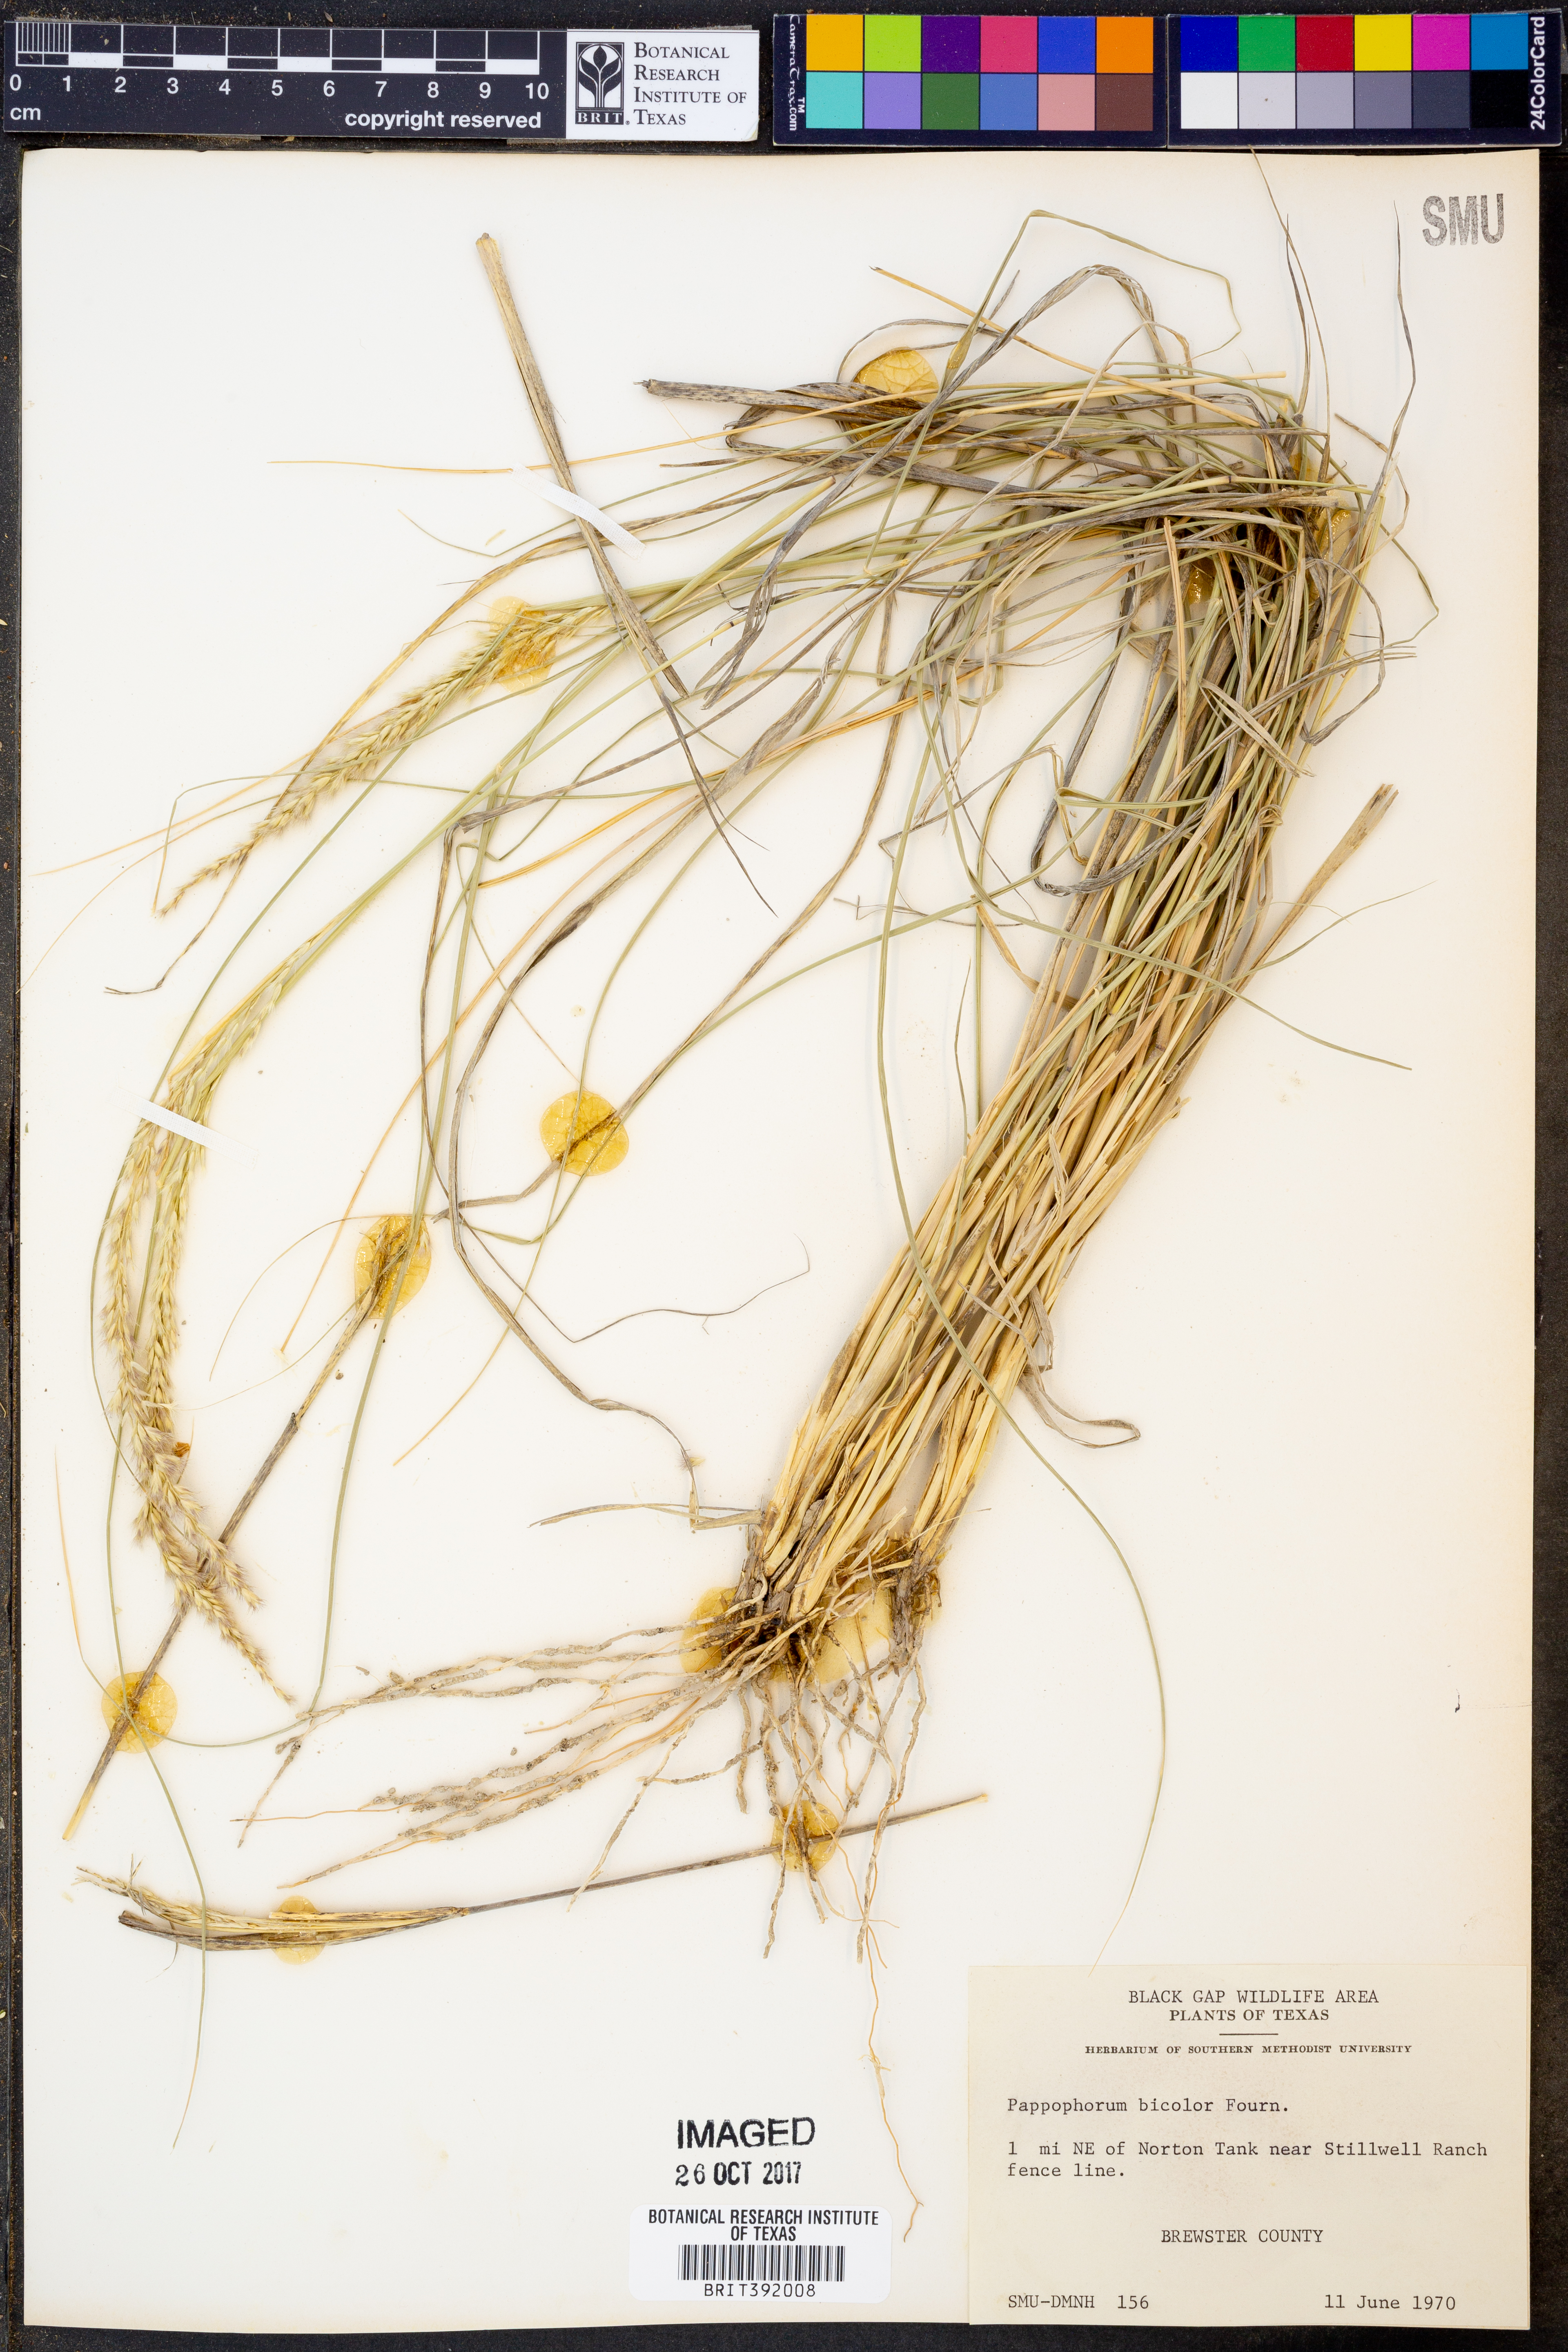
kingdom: Plantae
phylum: Tracheophyta
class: Liliopsida
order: Poales
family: Poaceae
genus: Pappophorum
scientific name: Pappophorum bicolor
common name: Pink pappus grass
